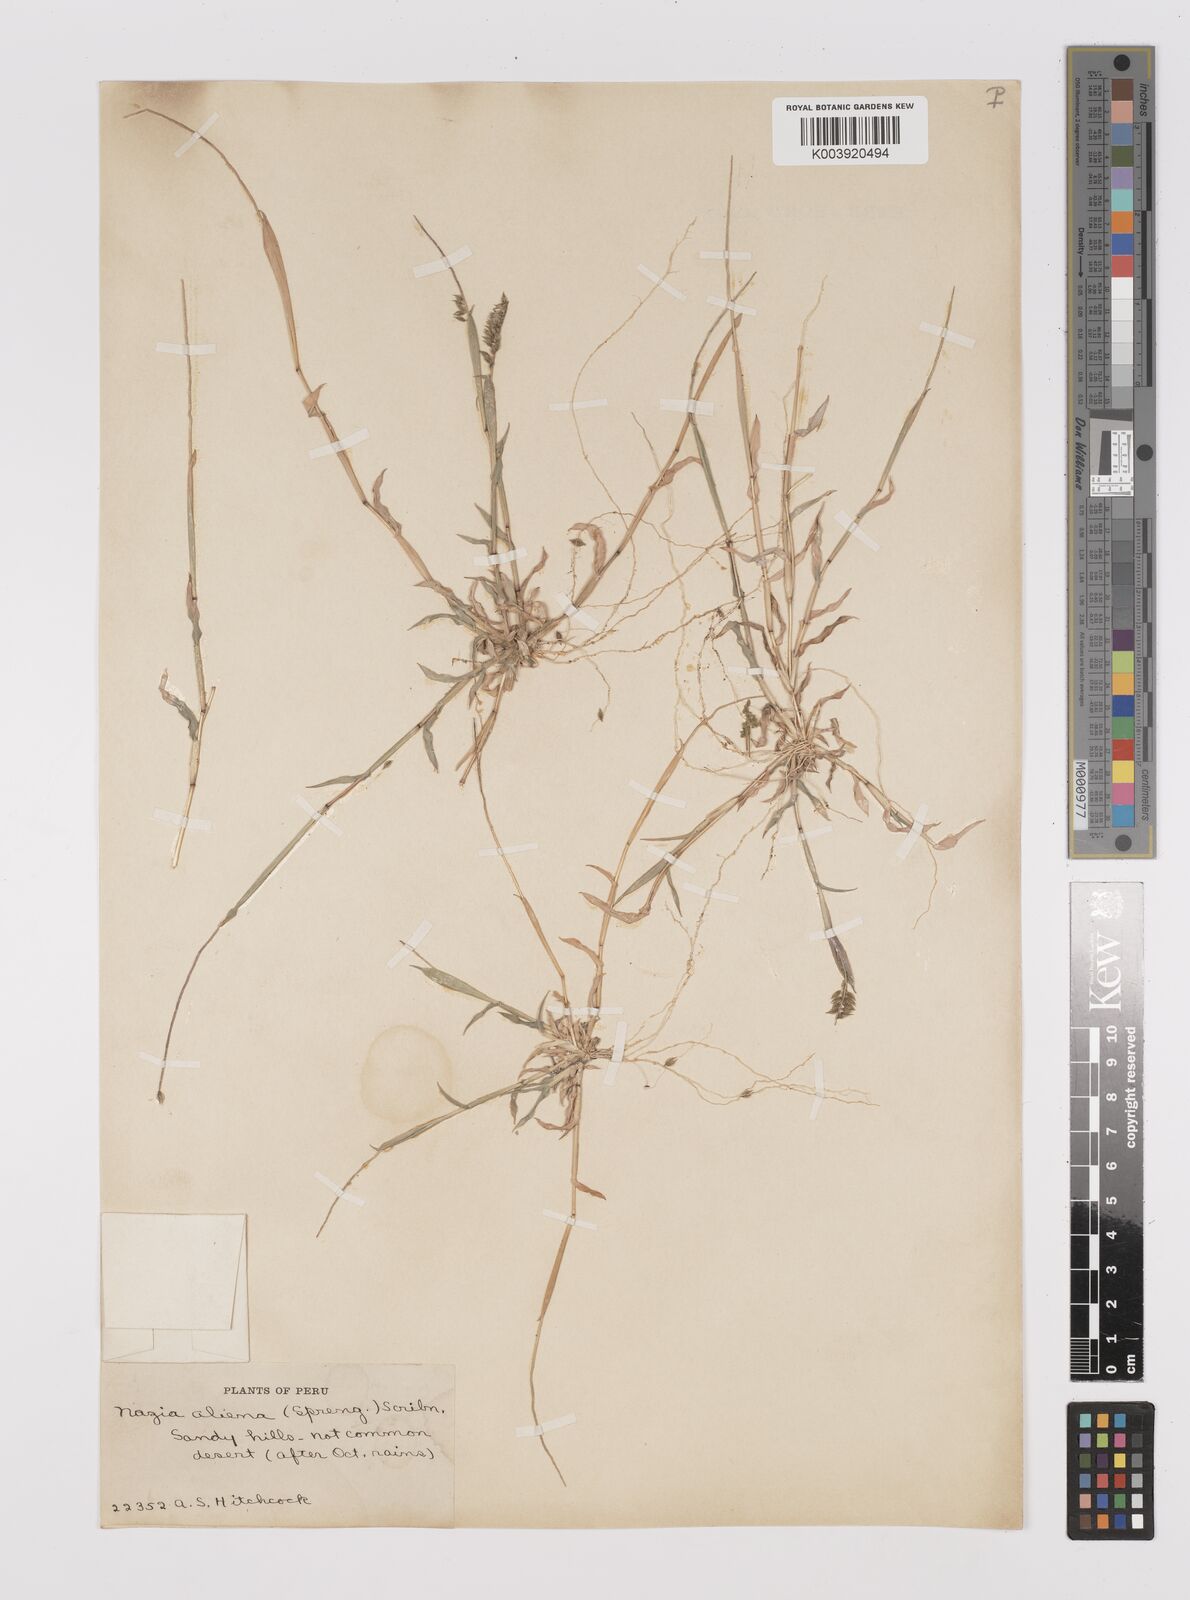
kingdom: Plantae
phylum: Tracheophyta
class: Liliopsida
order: Poales
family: Poaceae
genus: Tragus
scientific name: Tragus berteronianus
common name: African bur-grass
